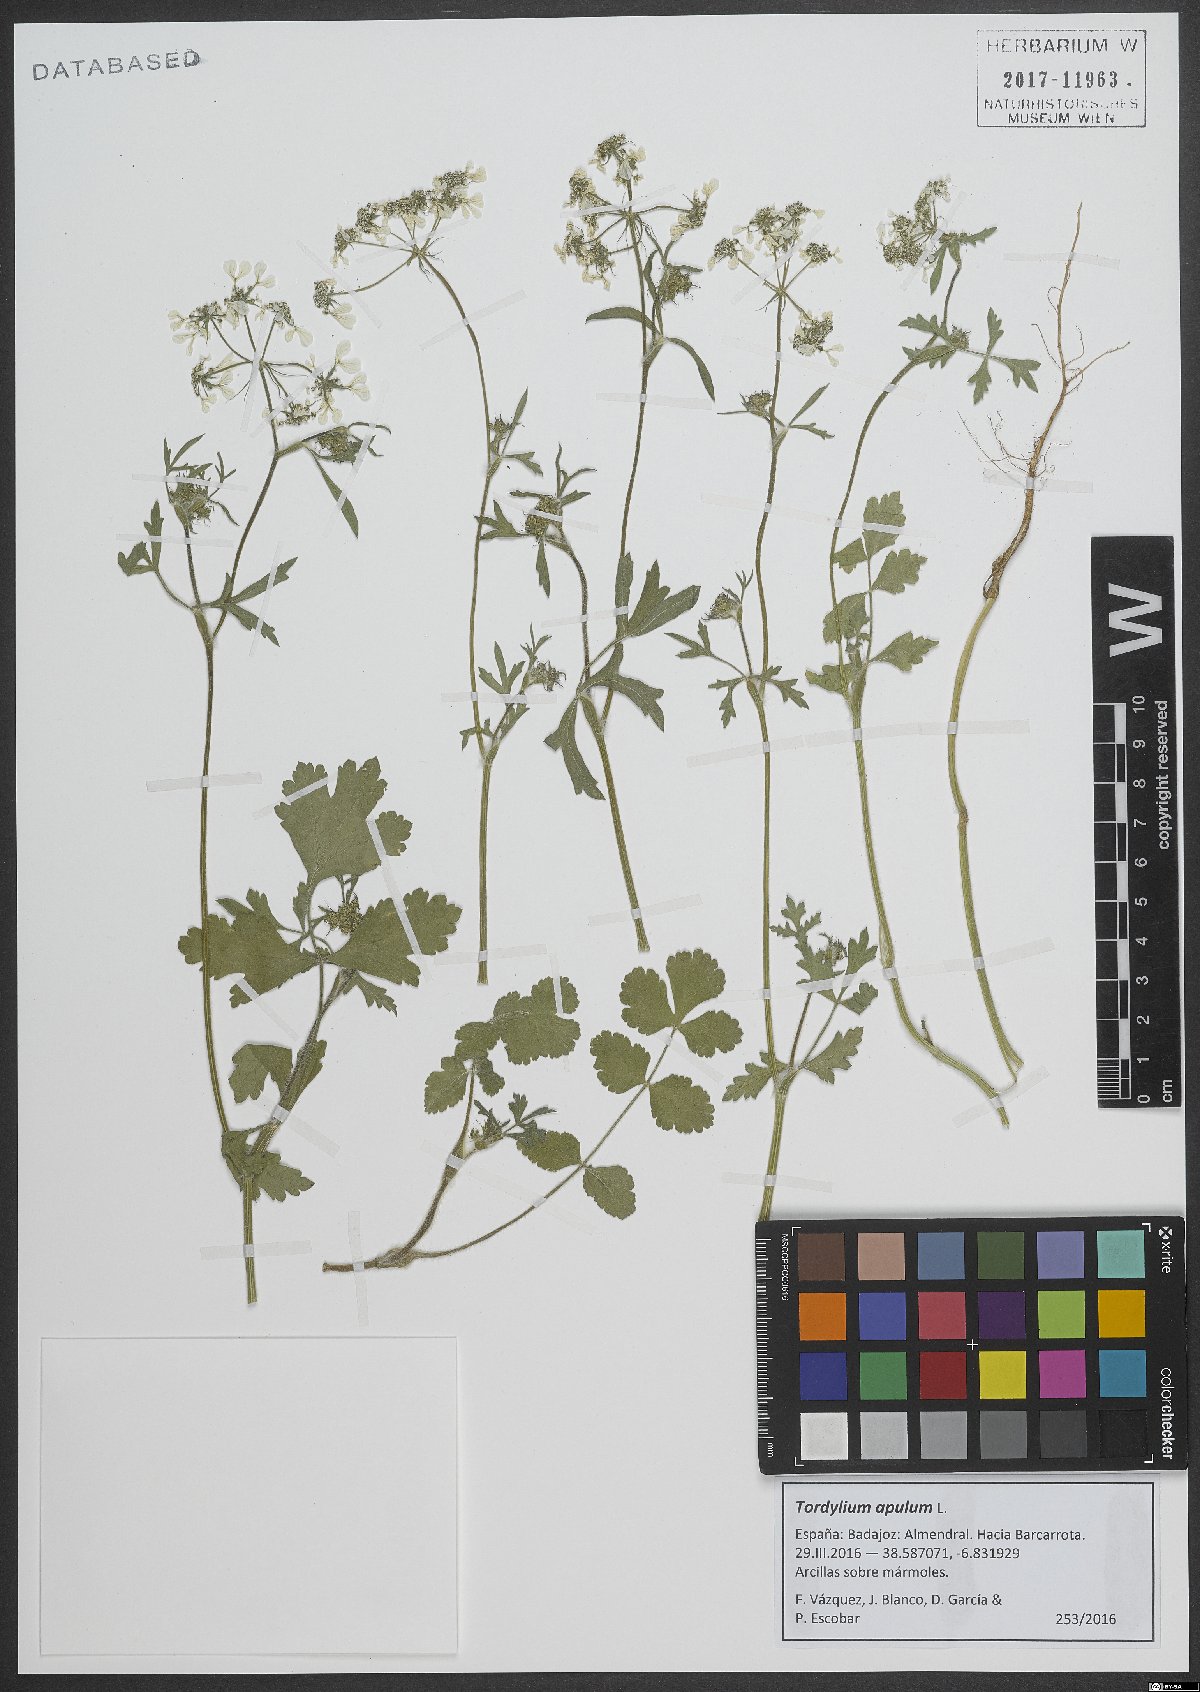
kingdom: Plantae
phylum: Tracheophyta
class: Magnoliopsida
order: Apiales
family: Apiaceae
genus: Tordylium
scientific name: Tordylium apulum
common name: Mediterranean hartwort
